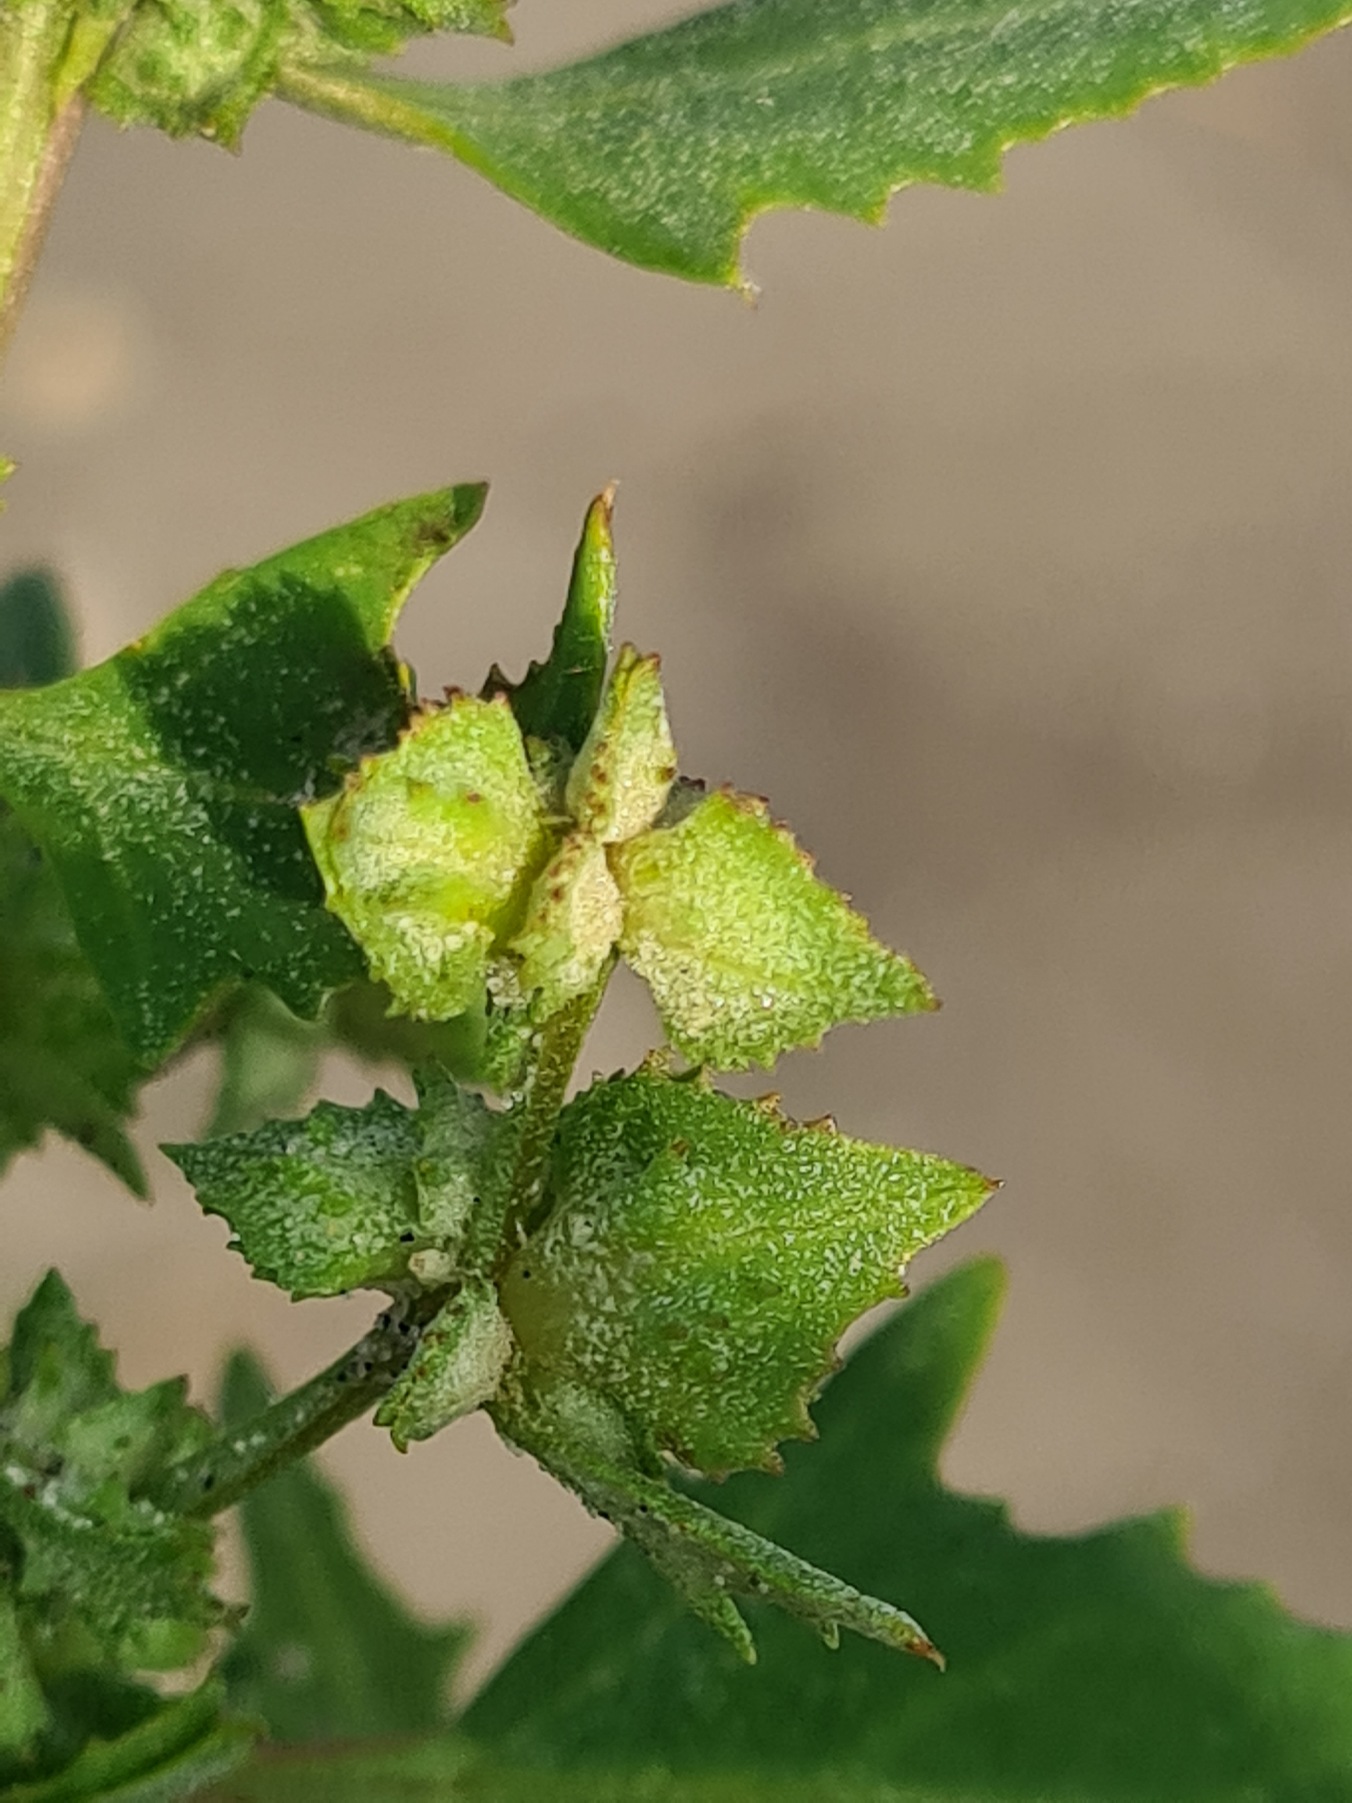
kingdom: Plantae
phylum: Tracheophyta
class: Magnoliopsida
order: Caryophyllales
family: Amaranthaceae
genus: Atriplex
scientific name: Atriplex glabriuscula
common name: Tykbladet mælde
